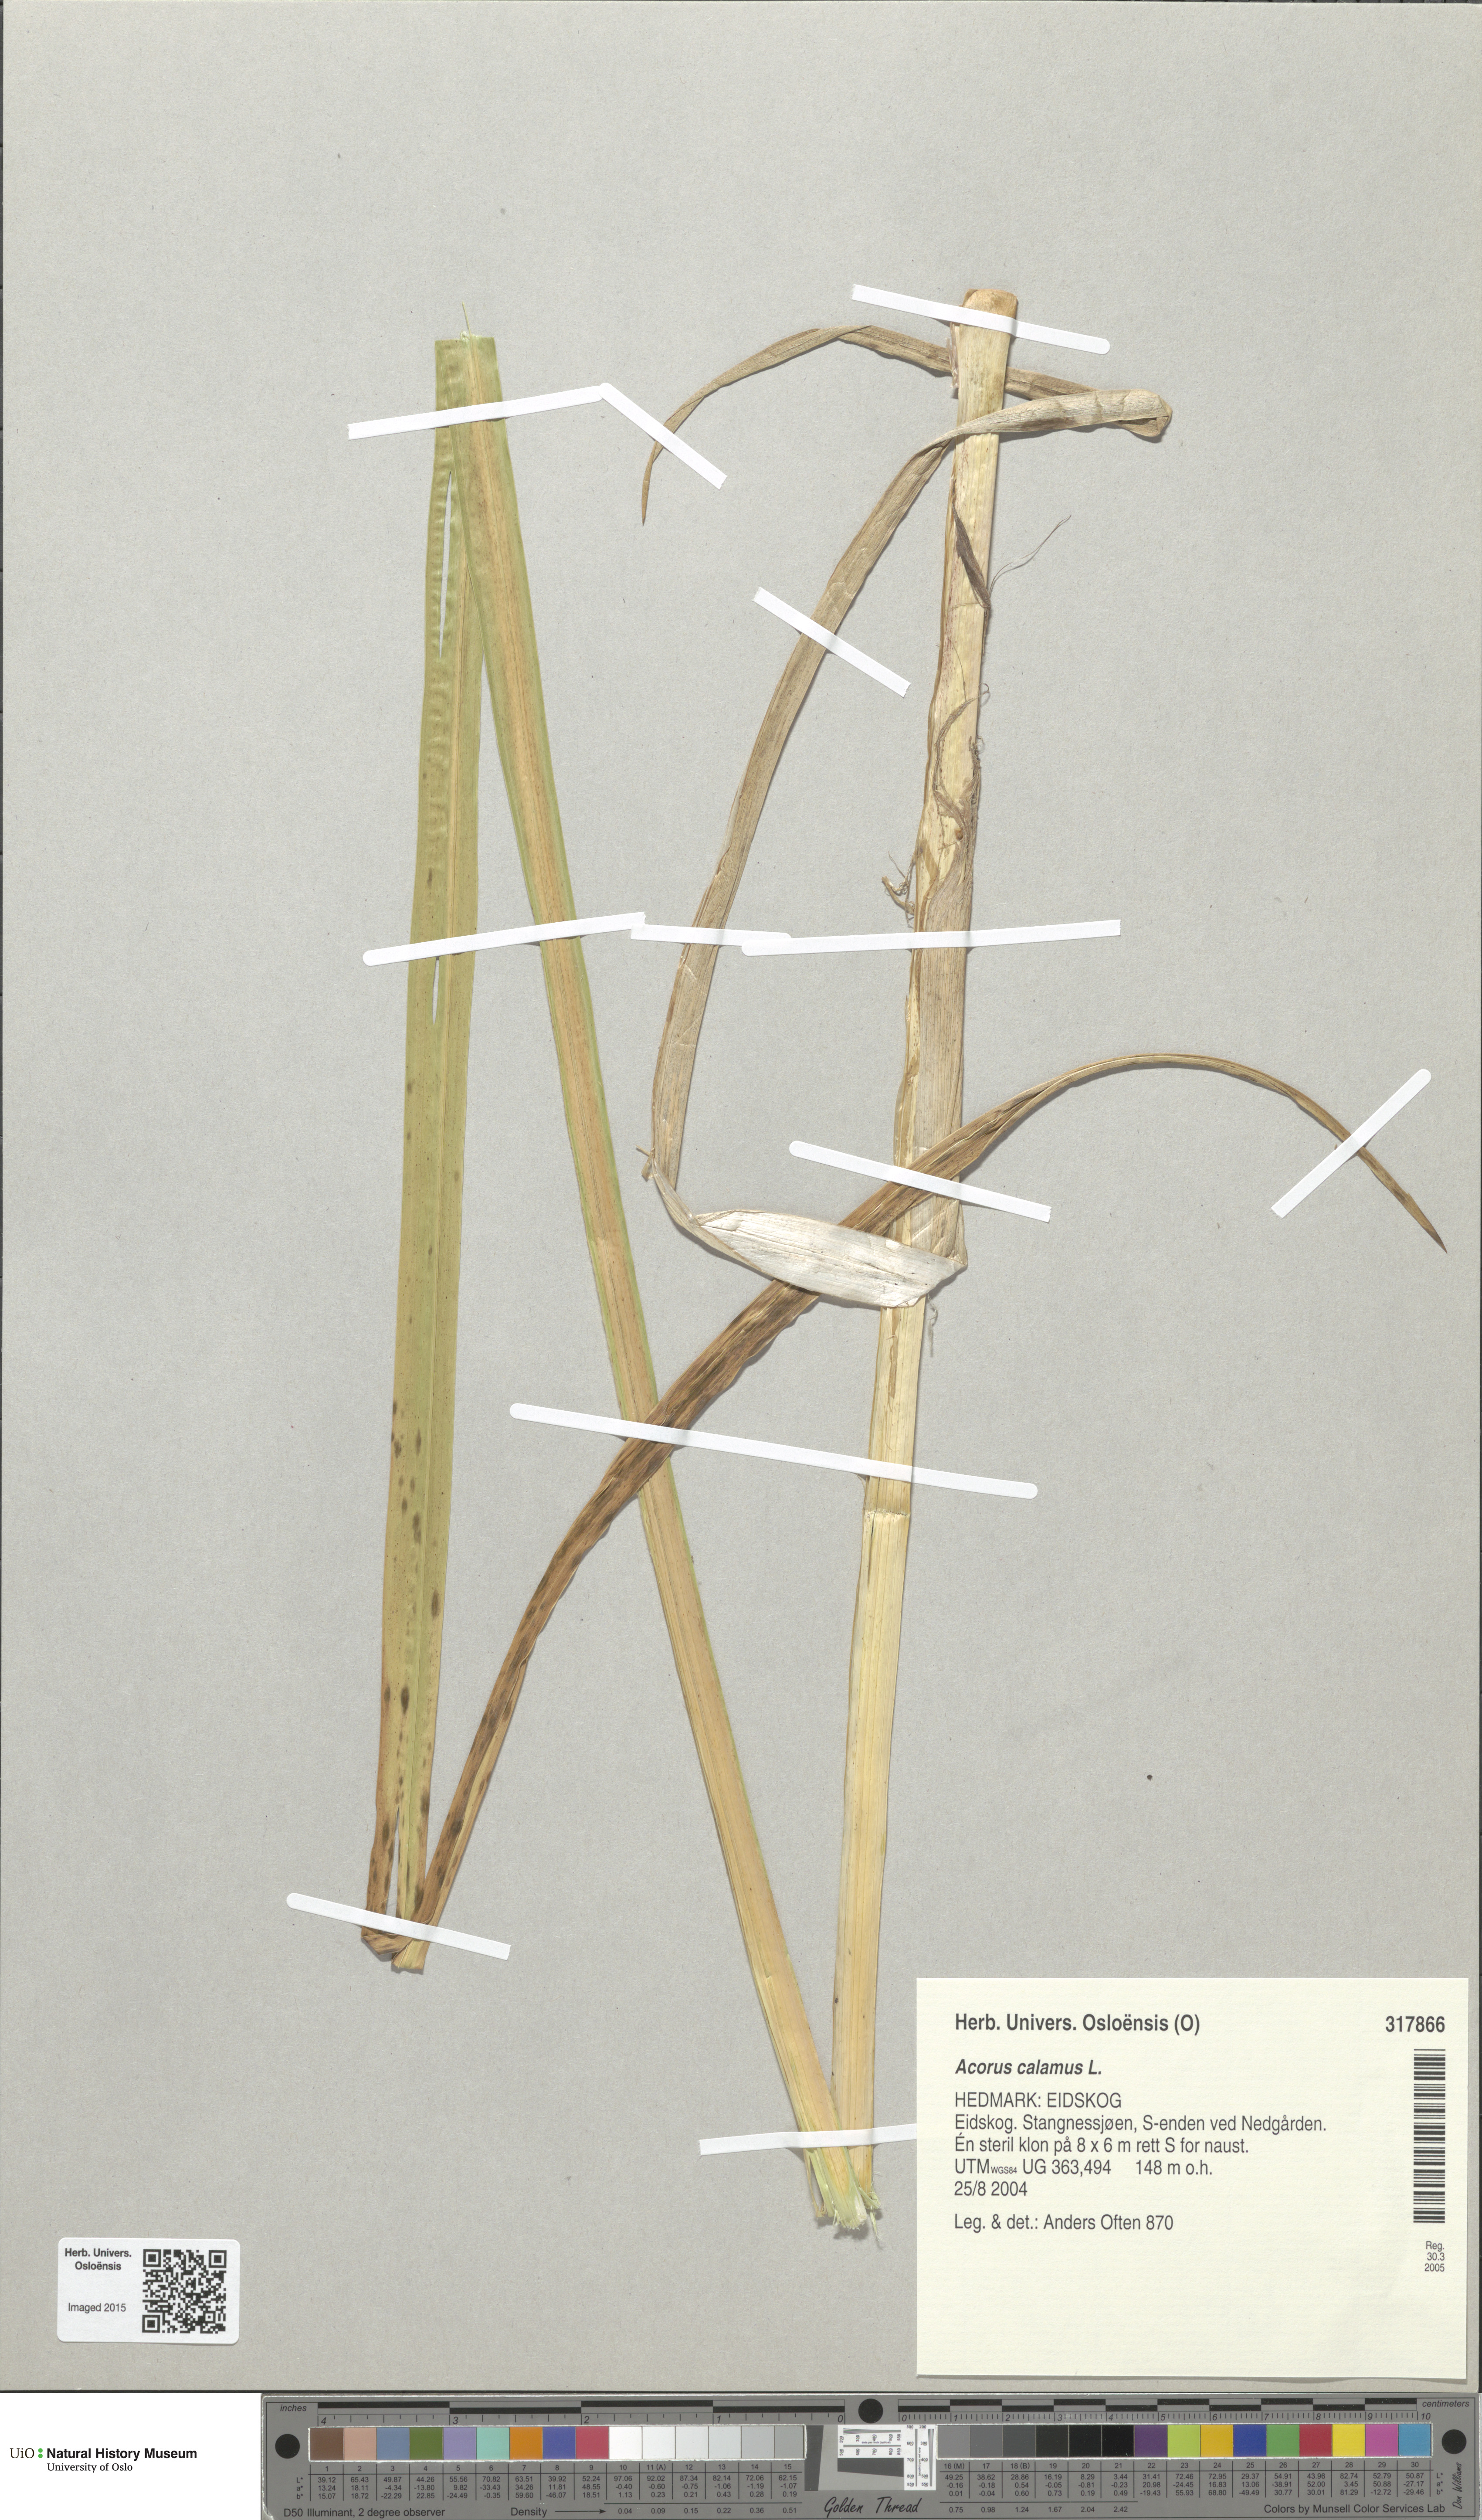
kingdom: Plantae
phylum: Tracheophyta
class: Liliopsida
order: Acorales
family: Acoraceae
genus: Acorus
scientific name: Acorus calamus
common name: Sweet-flag
